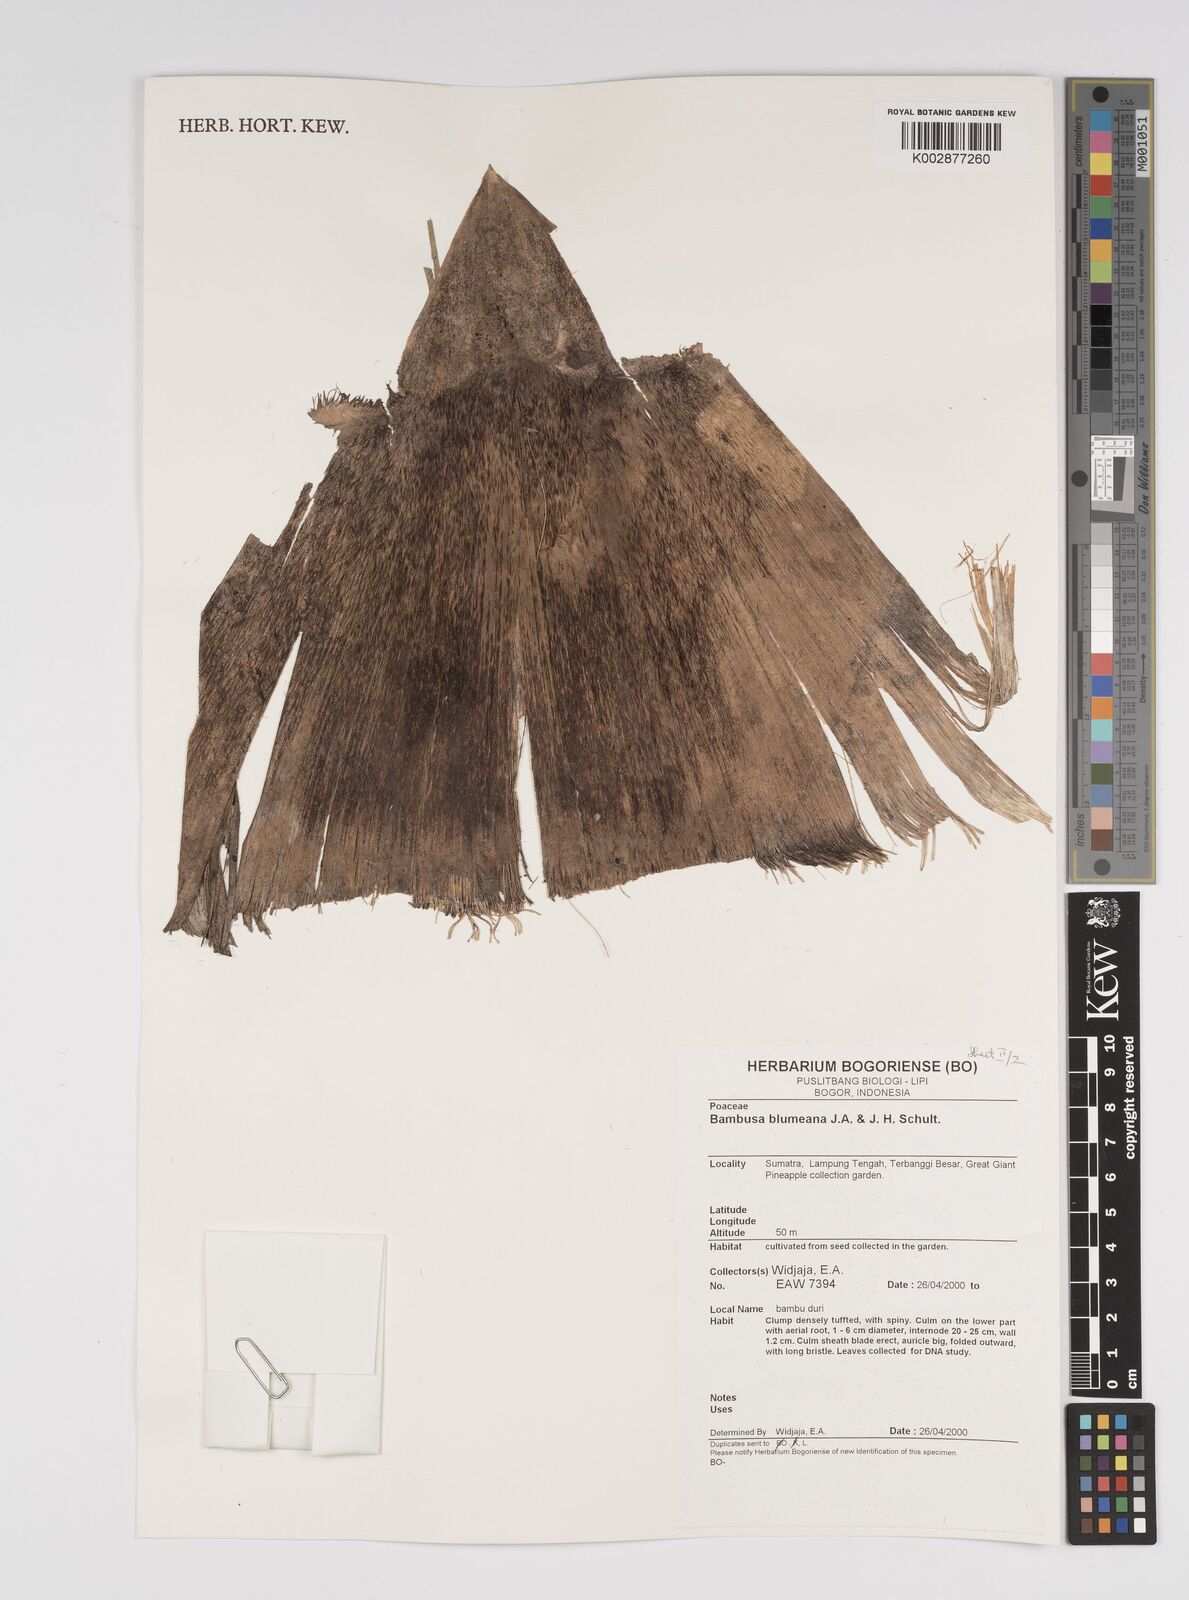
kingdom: Plantae
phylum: Tracheophyta
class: Liliopsida
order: Poales
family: Poaceae
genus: Bambusa
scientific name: Bambusa spinosa
